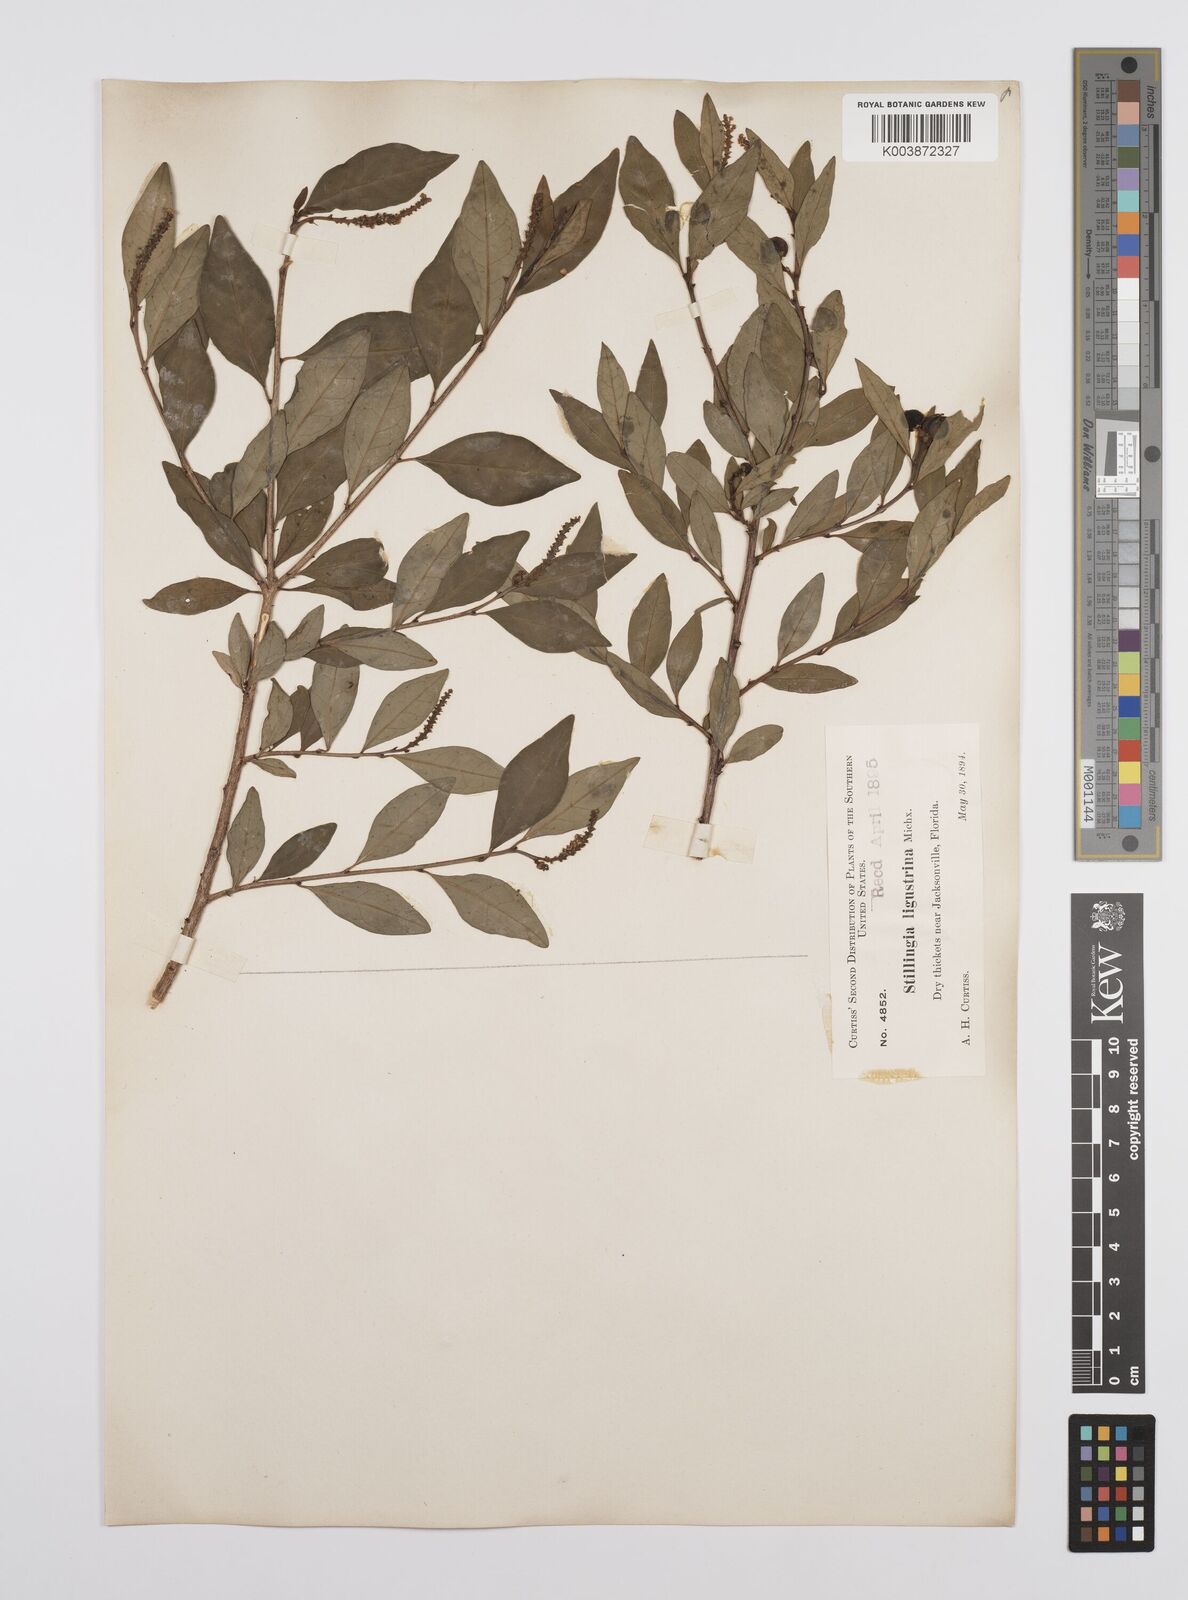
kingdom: Plantae
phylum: Tracheophyta
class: Magnoliopsida
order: Malpighiales
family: Euphorbiaceae
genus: Ditrysinia
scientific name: Ditrysinia fruticosa
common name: Gulf sebastian-bush
